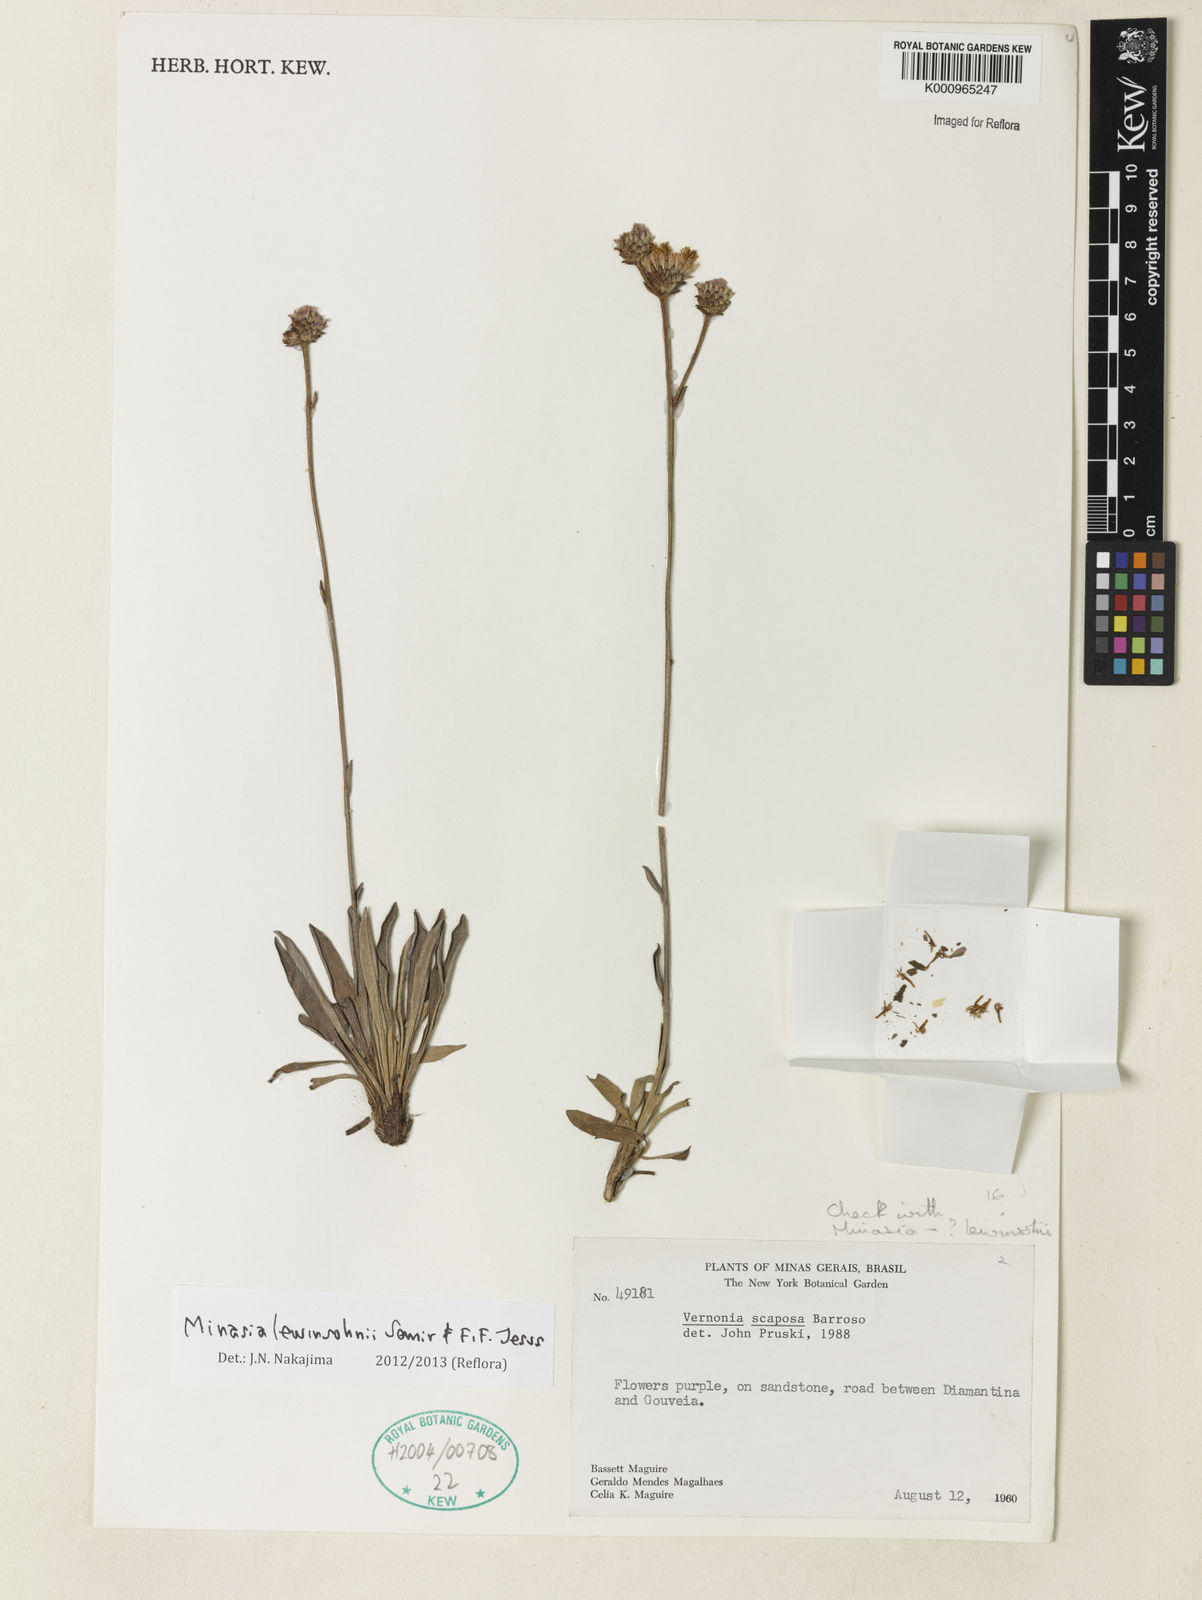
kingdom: Plantae
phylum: Tracheophyta
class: Magnoliopsida
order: Asterales
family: Asteraceae
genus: Minasia
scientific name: Minasia lewinsohnii
